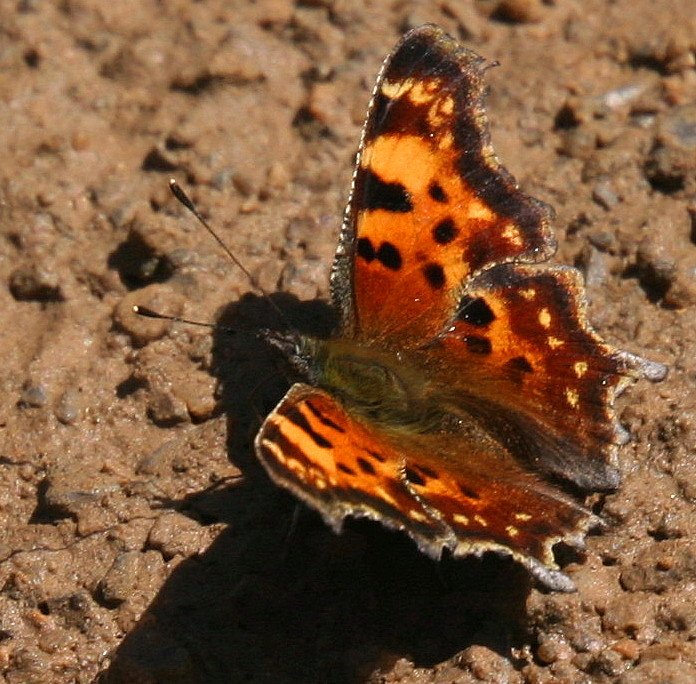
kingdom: Animalia
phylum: Arthropoda
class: Insecta
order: Lepidoptera
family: Nymphalidae
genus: Polygonia
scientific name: Polygonia faunus
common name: Green Comma
